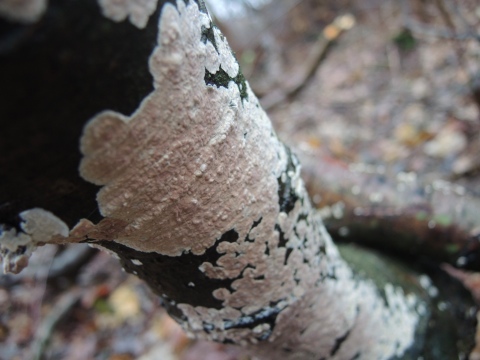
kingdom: Fungi
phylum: Basidiomycota
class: Agaricomycetes
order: Corticiales
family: Corticiaceae
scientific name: Corticiaceae
